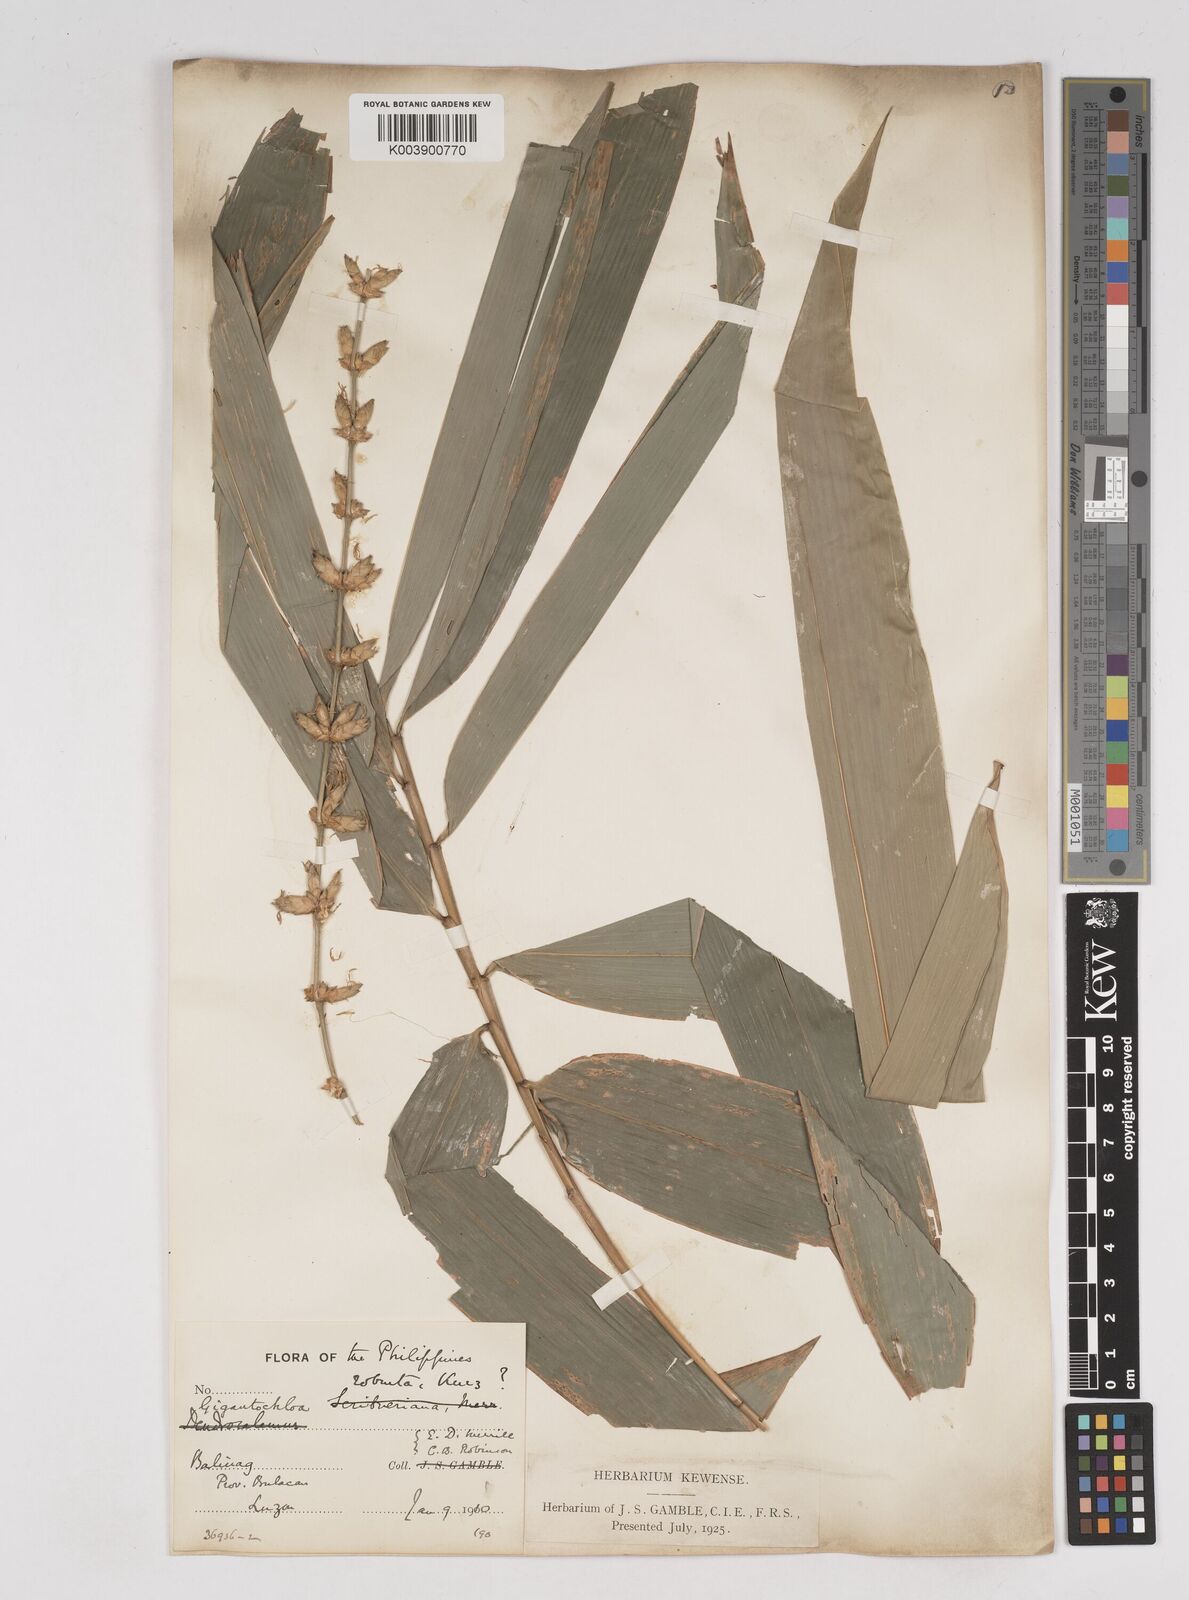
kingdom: Plantae
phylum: Tracheophyta
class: Liliopsida
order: Poales
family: Poaceae
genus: Gigantochloa
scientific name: Gigantochloa levis
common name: Smooth-shoot gigantochloa
